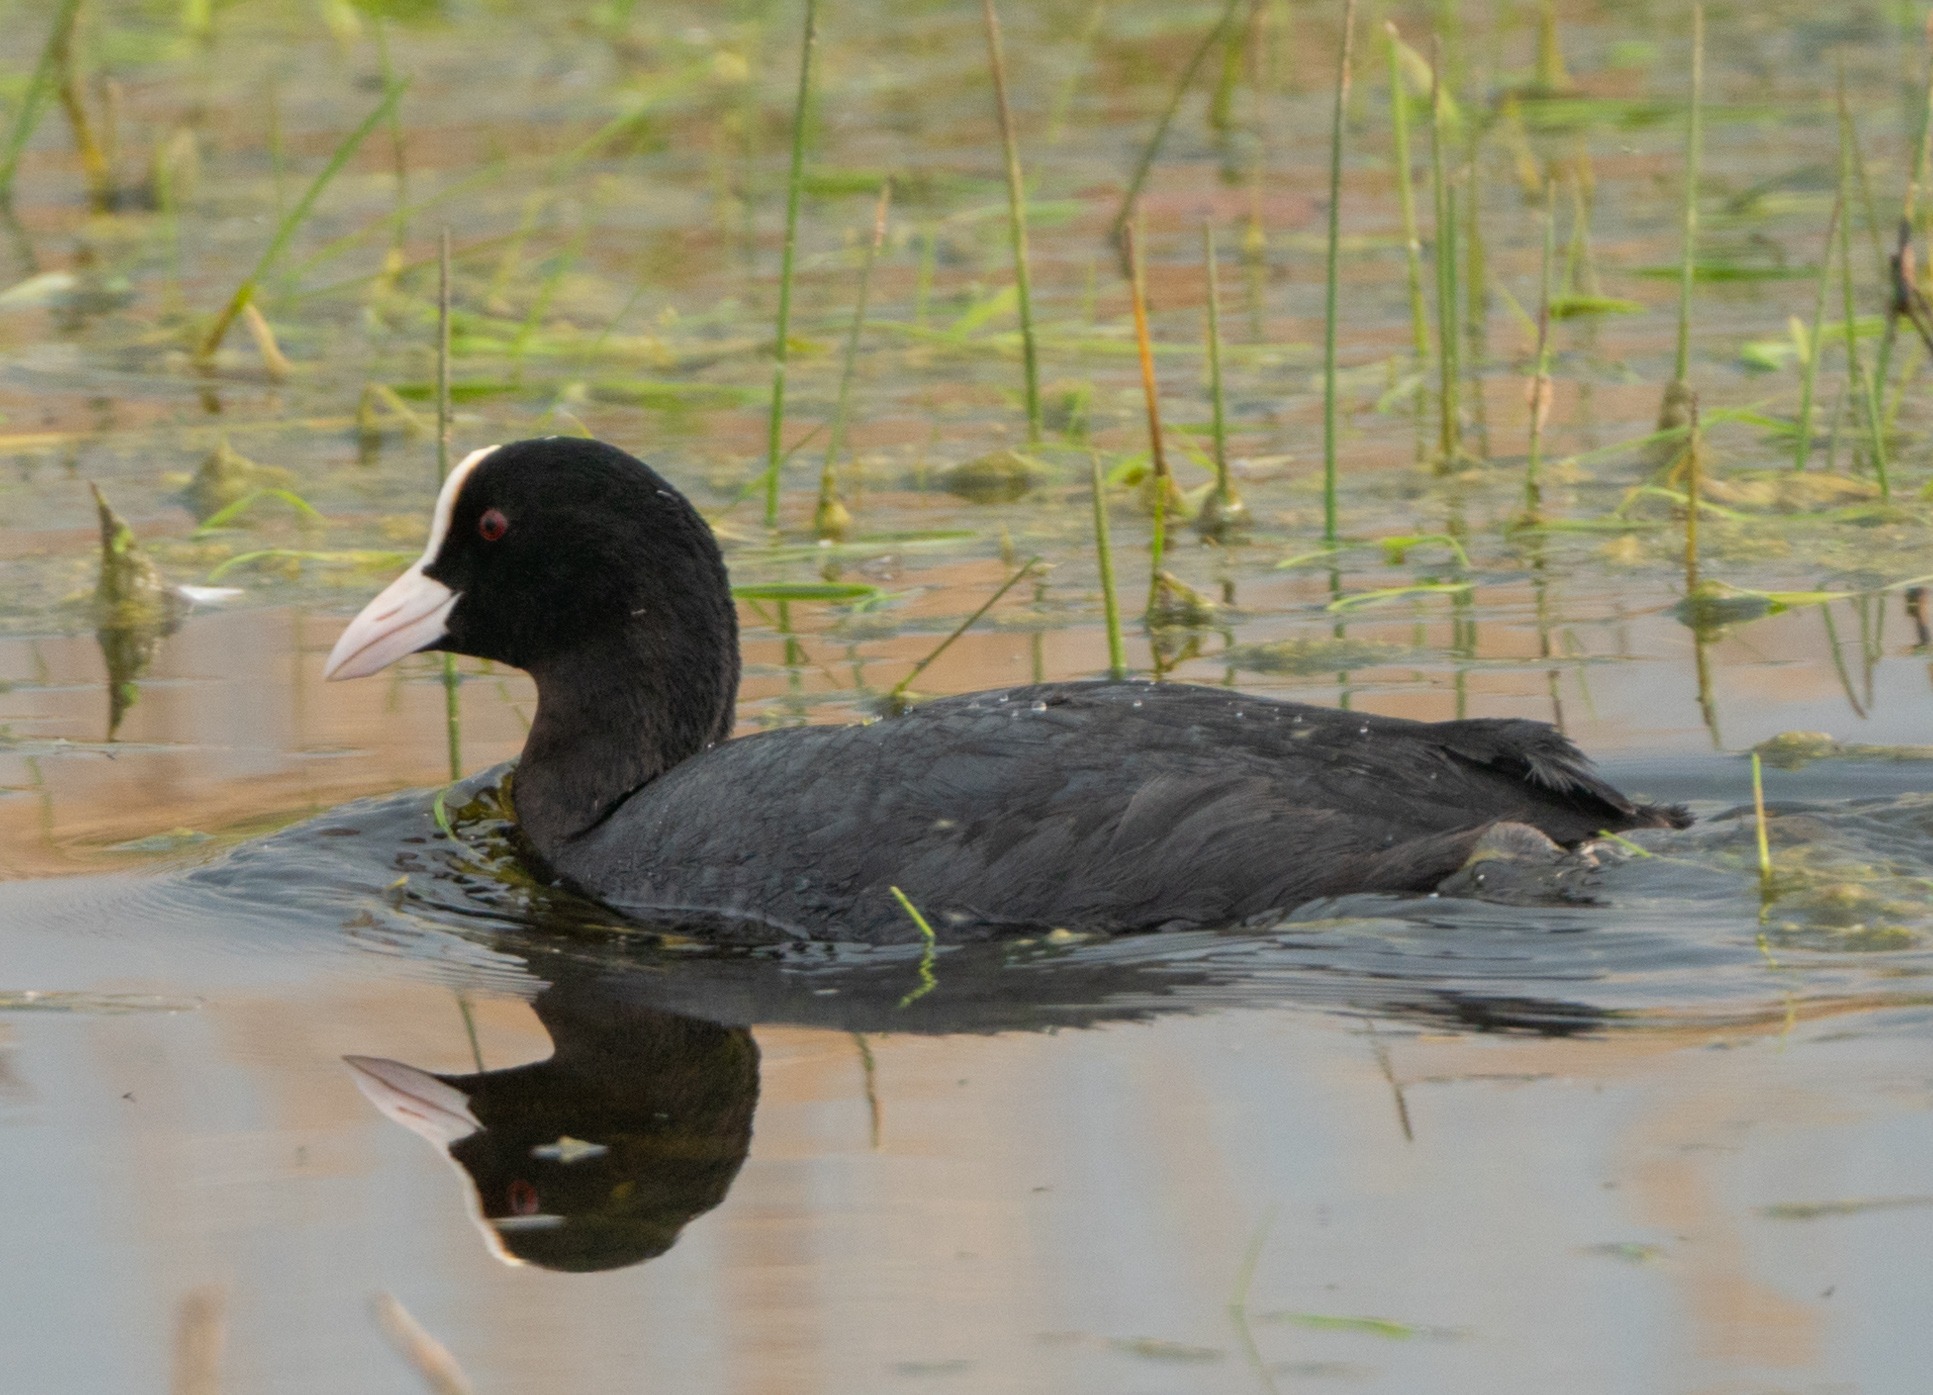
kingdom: Animalia
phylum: Chordata
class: Aves
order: Gruiformes
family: Rallidae
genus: Fulica
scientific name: Fulica atra
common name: Blishøne
